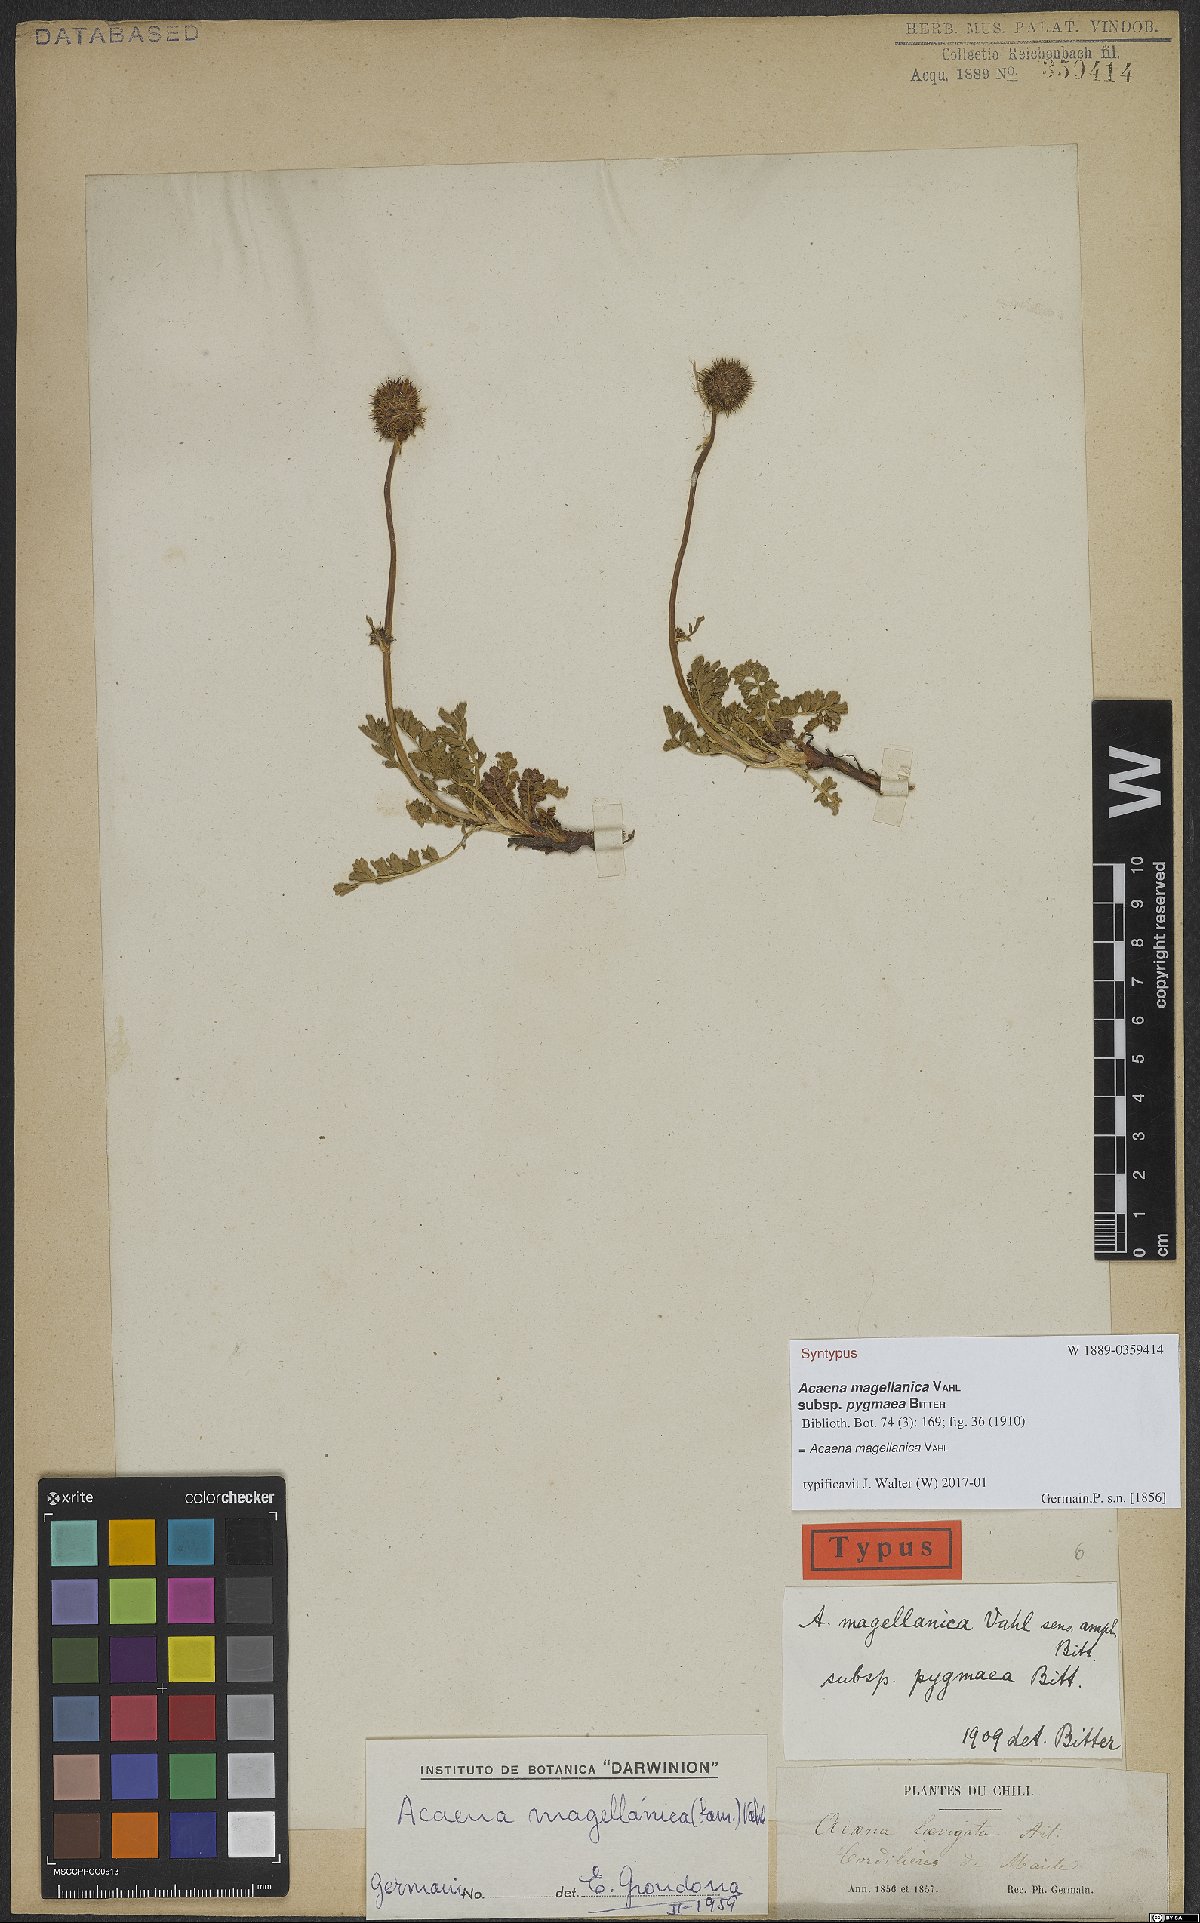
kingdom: Plantae
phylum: Tracheophyta
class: Magnoliopsida
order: Rosales
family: Rosaceae
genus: Acaena
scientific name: Acaena magellanica
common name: New zealand burr
